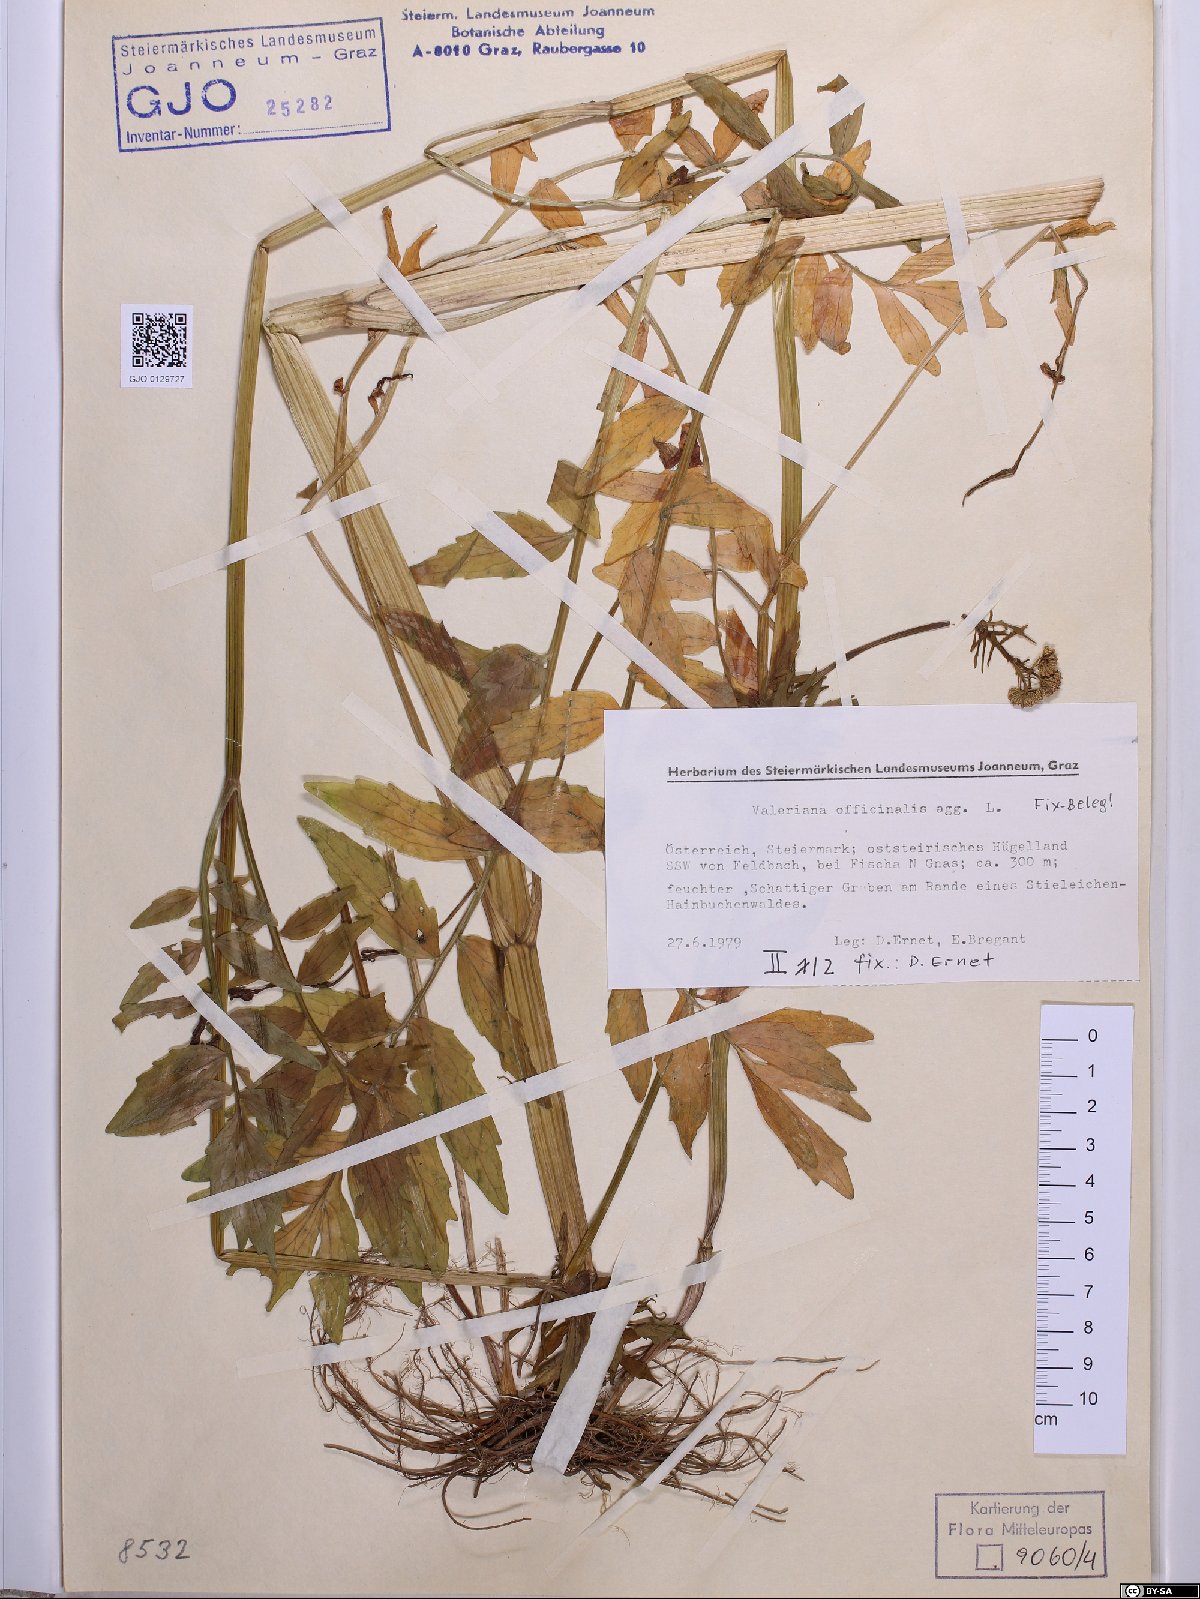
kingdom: Plantae
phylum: Tracheophyta
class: Magnoliopsida
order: Dipsacales
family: Caprifoliaceae
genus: Valeriana
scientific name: Valeriana officinalis
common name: Common valerian
